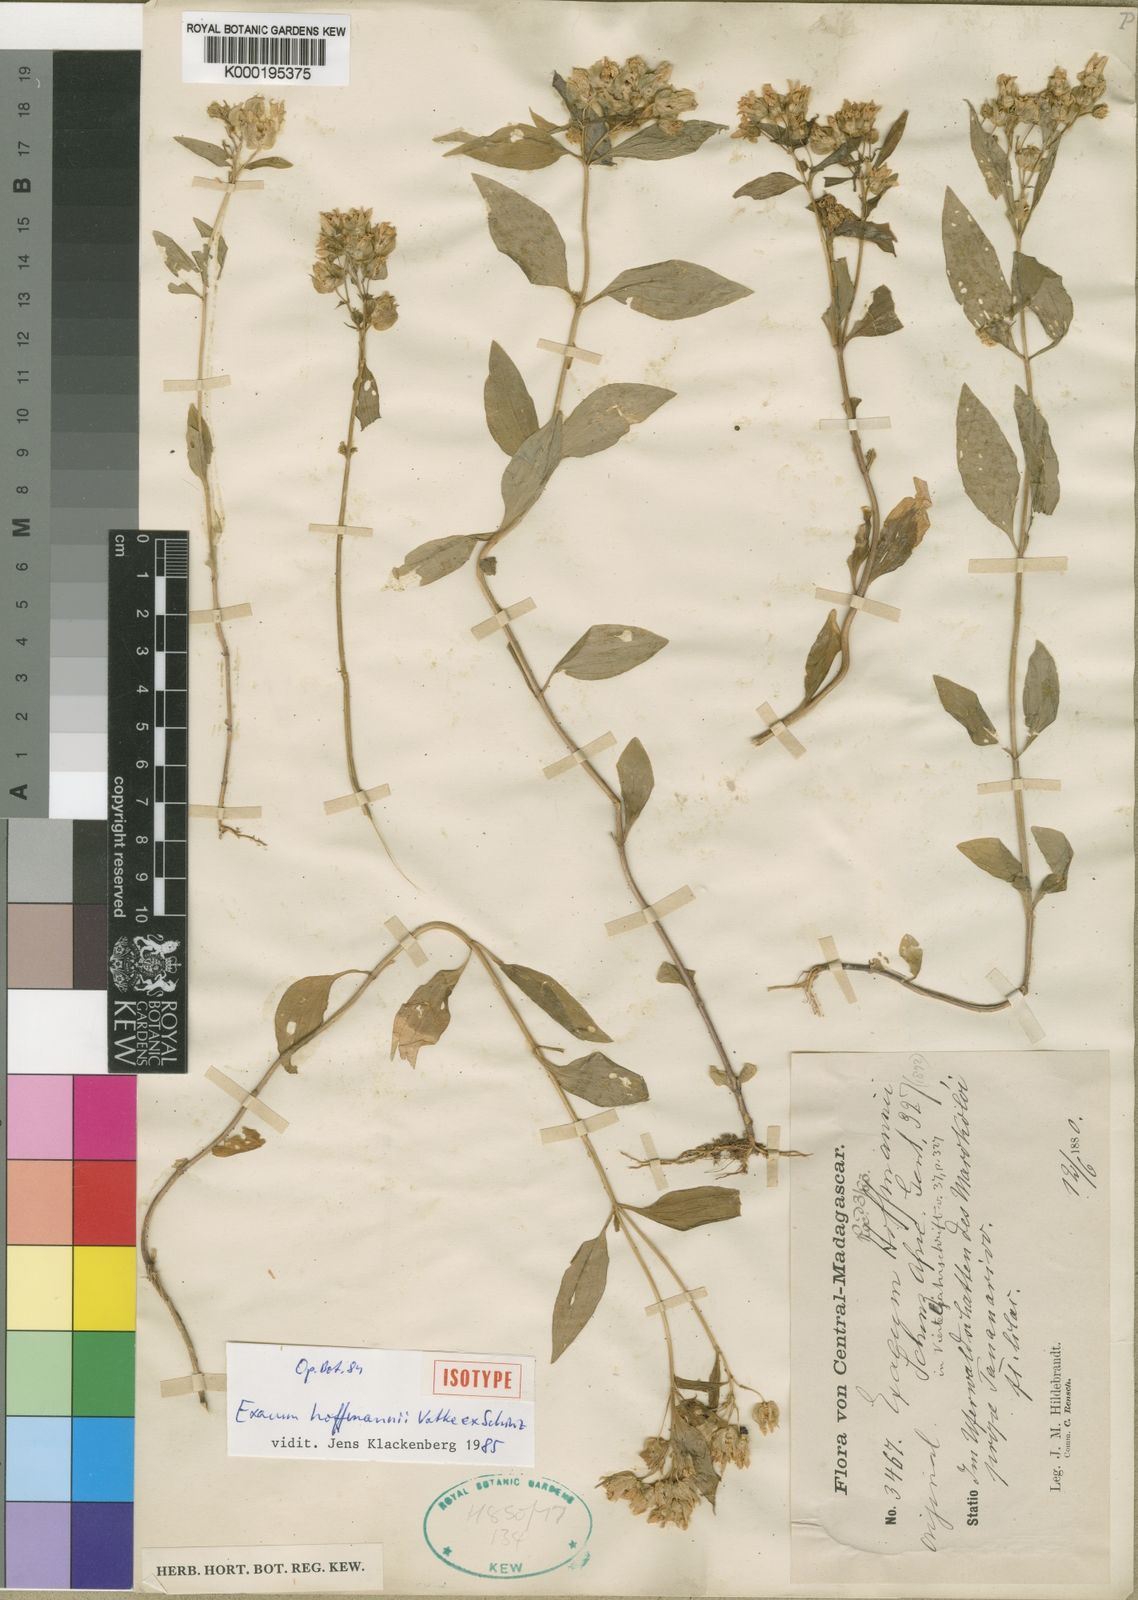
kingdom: Plantae
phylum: Tracheophyta
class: Magnoliopsida
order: Gentianales
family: Gentianaceae
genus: Exacum
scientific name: Exacum hoffmannii
